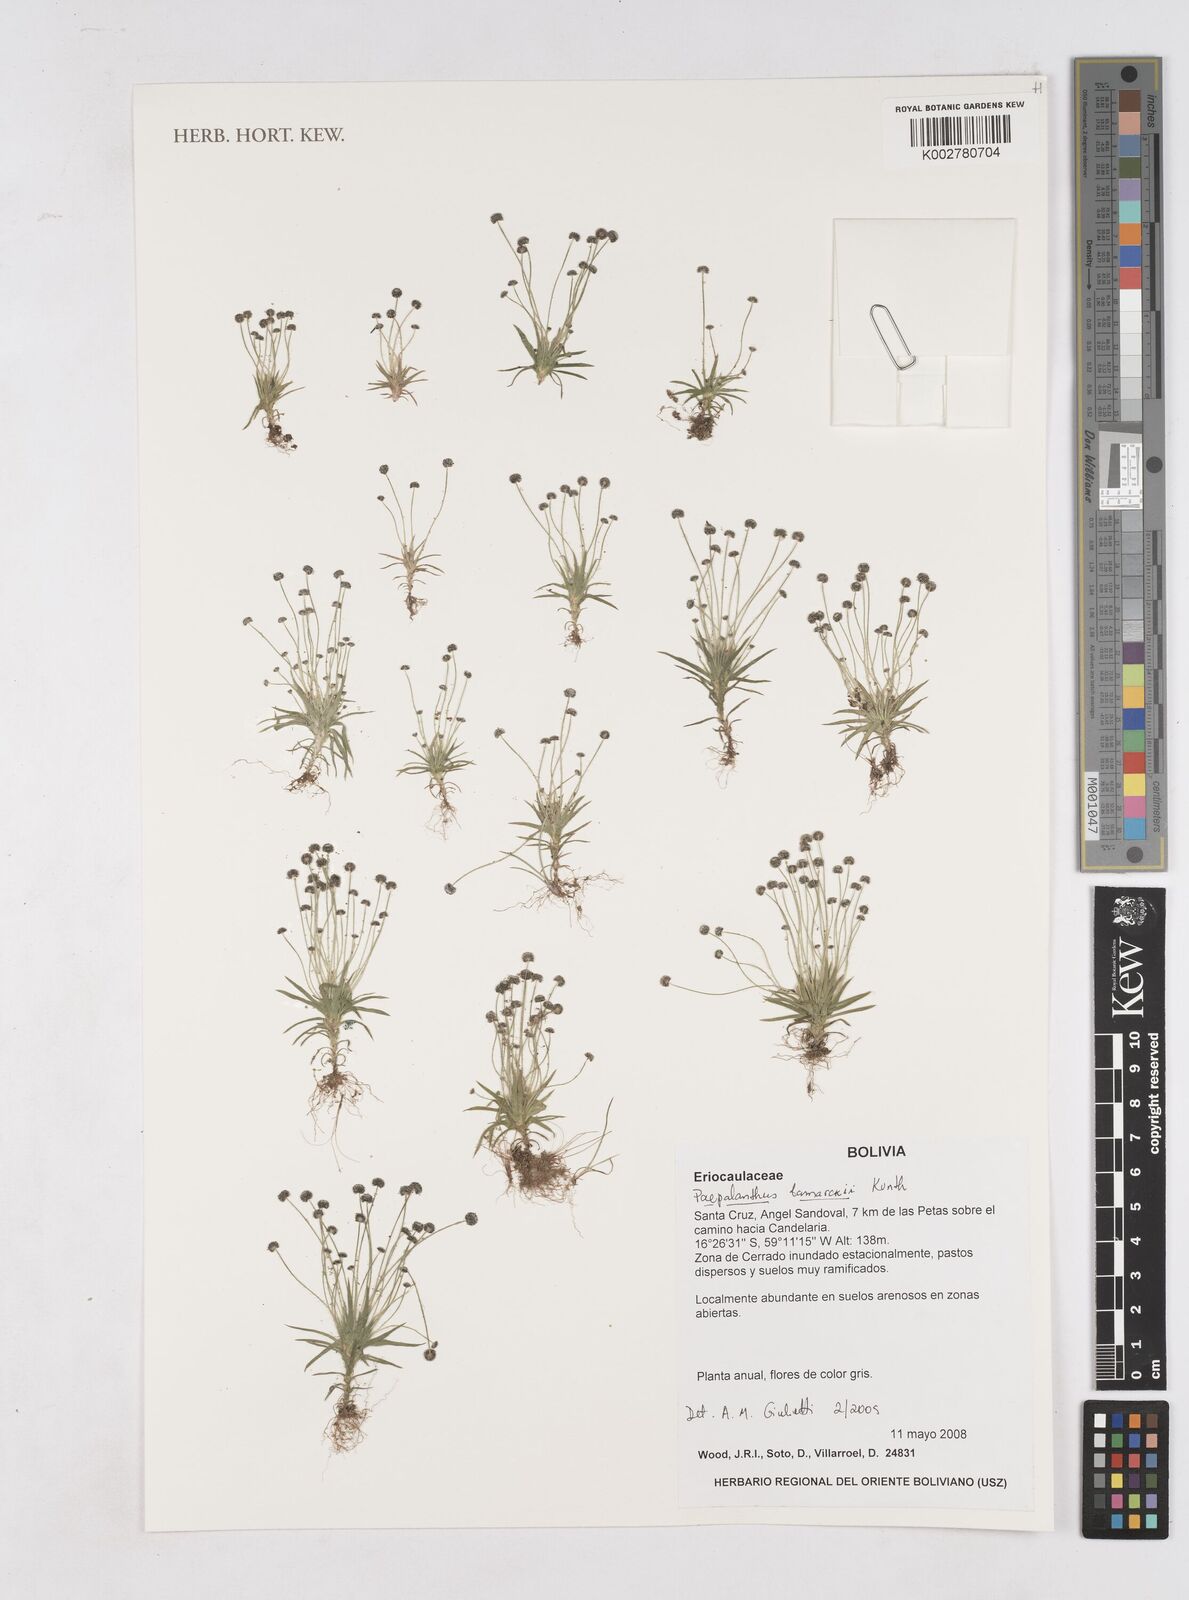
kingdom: Plantae
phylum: Tracheophyta
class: Liliopsida
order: Poales
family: Eriocaulaceae
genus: Paepalanthus
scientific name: Paepalanthus lamarckii
